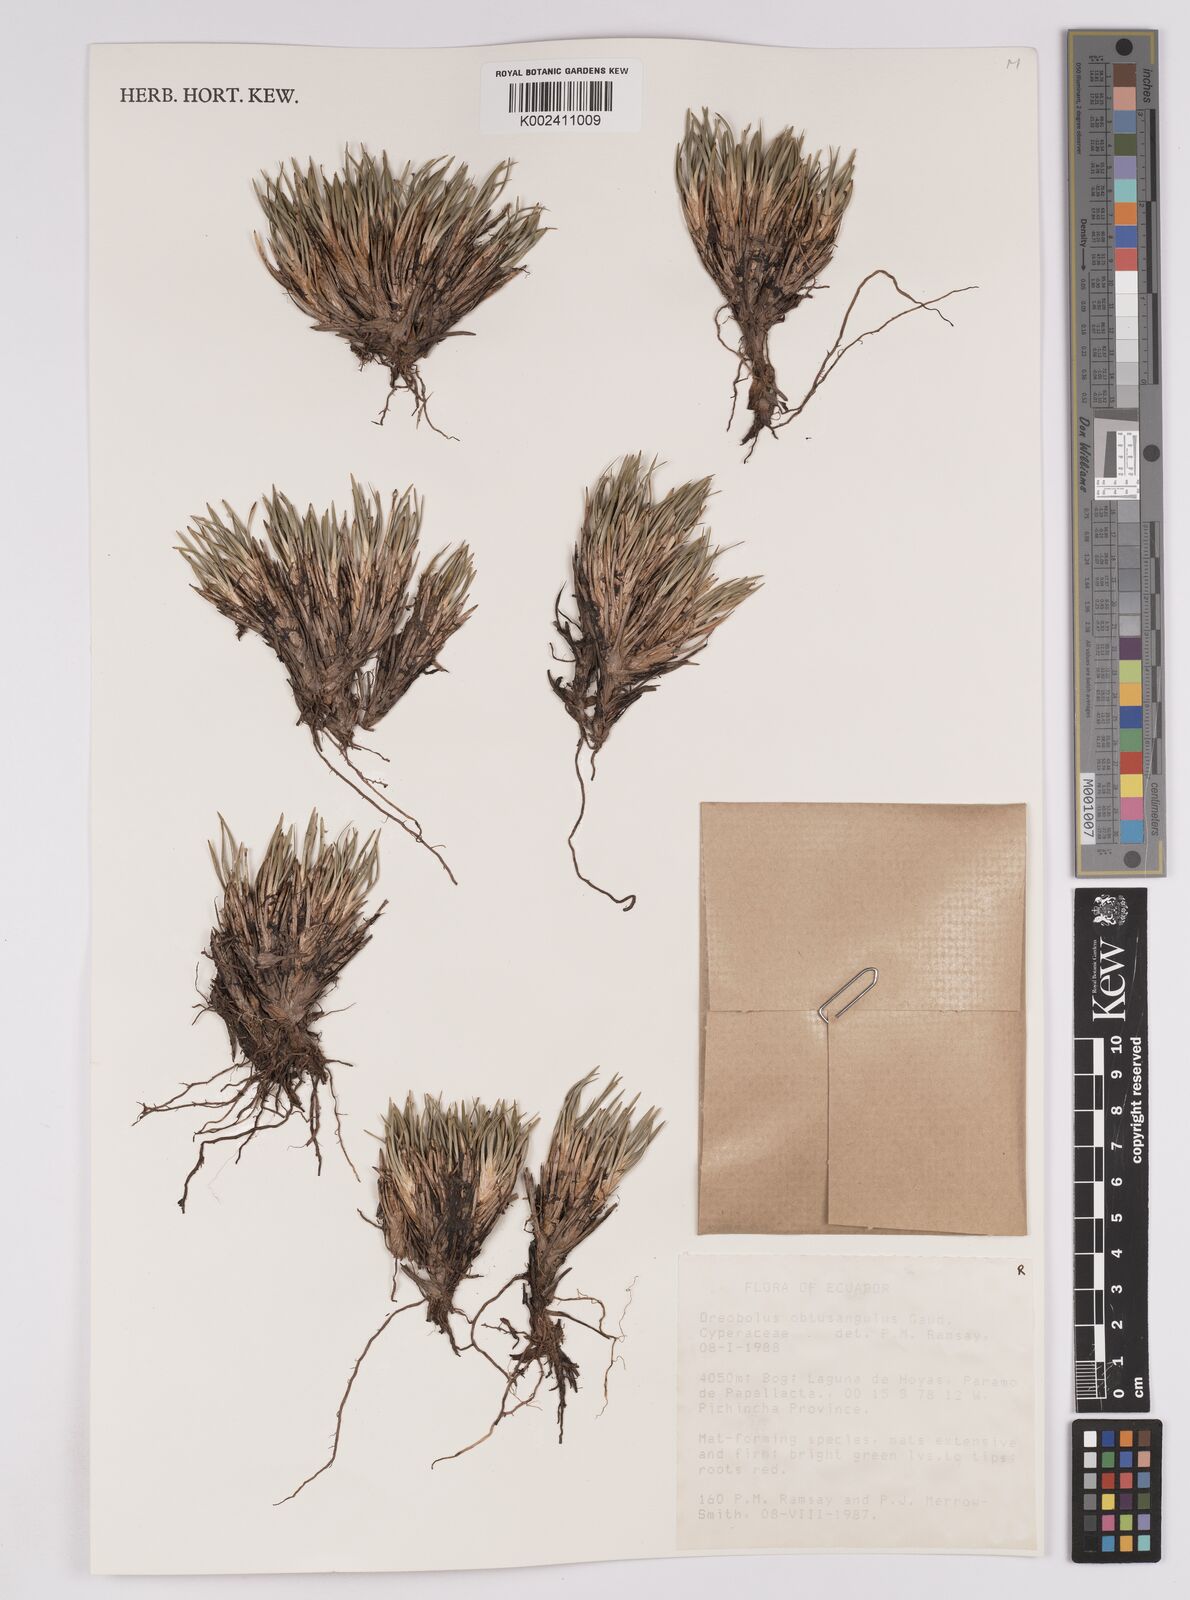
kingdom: Plantae
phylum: Tracheophyta
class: Liliopsida
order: Poales
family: Cyperaceae
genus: Oreobolus
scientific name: Oreobolus obtusangulus
